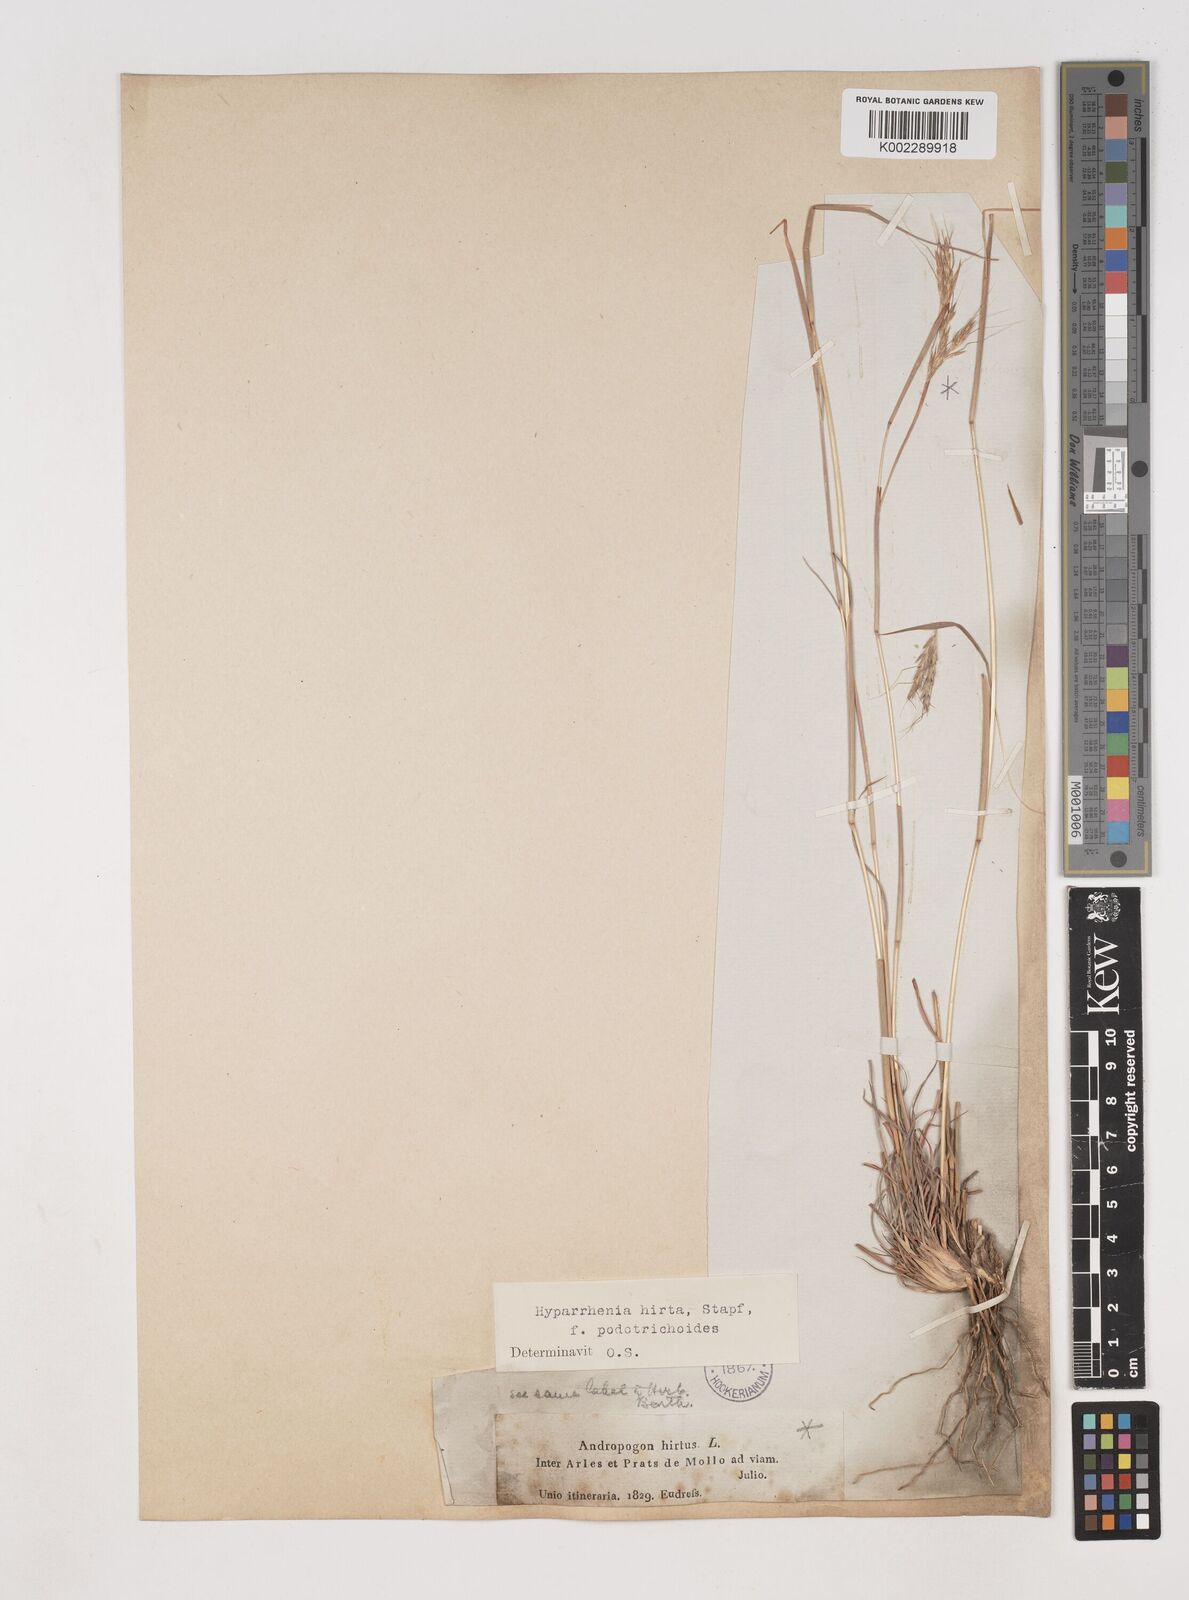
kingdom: Plantae
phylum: Tracheophyta
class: Liliopsida
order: Poales
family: Poaceae
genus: Hyparrhenia
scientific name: Hyparrhenia hirta
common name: Thatching grass
